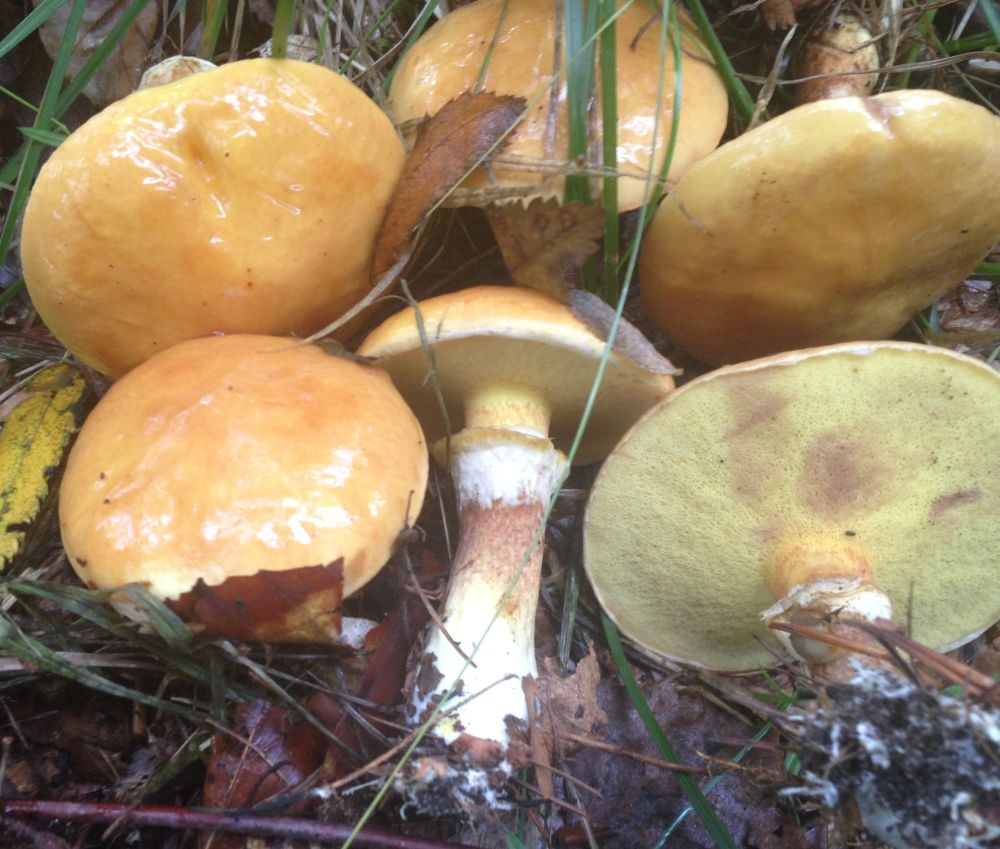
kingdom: Fungi
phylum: Basidiomycota
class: Agaricomycetes
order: Boletales
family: Suillaceae
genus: Suillus
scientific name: Suillus grevillei
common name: lærke-slimrørhat
